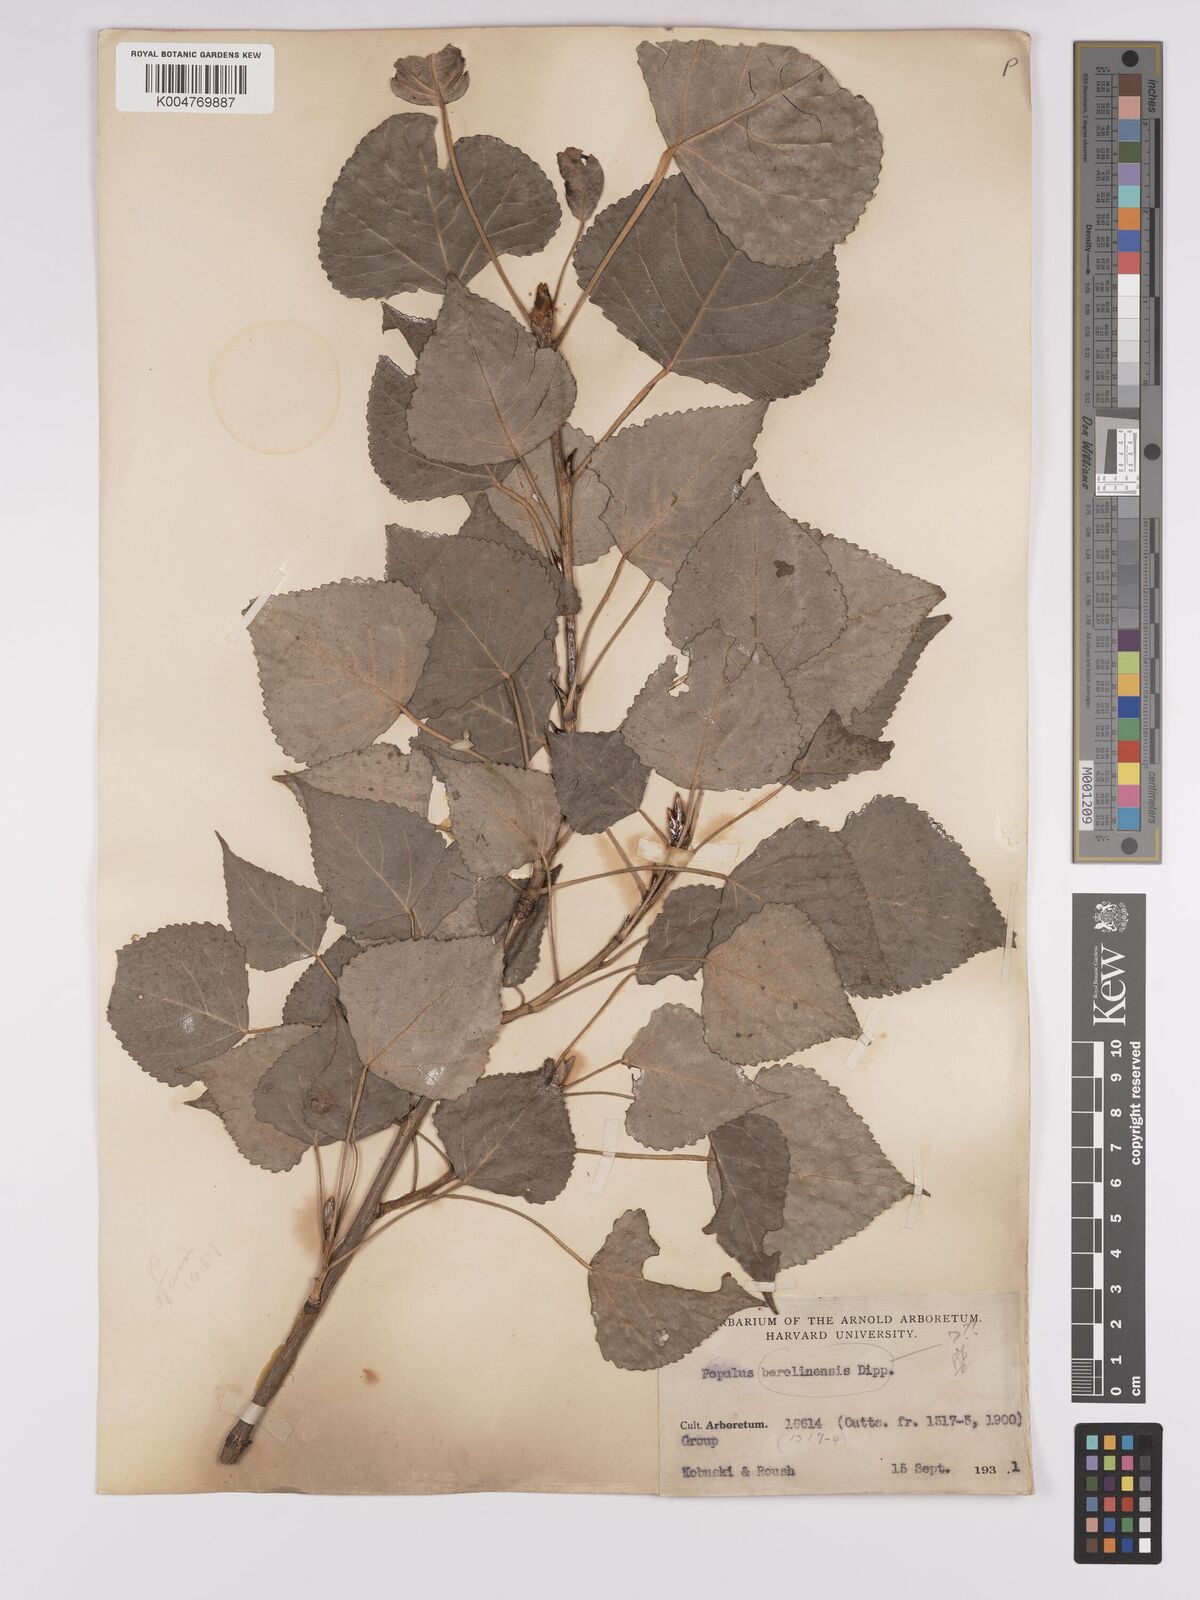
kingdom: Plantae
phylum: Tracheophyta
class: Magnoliopsida
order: Malpighiales
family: Salicaceae
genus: Populus
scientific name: Populus dubia
